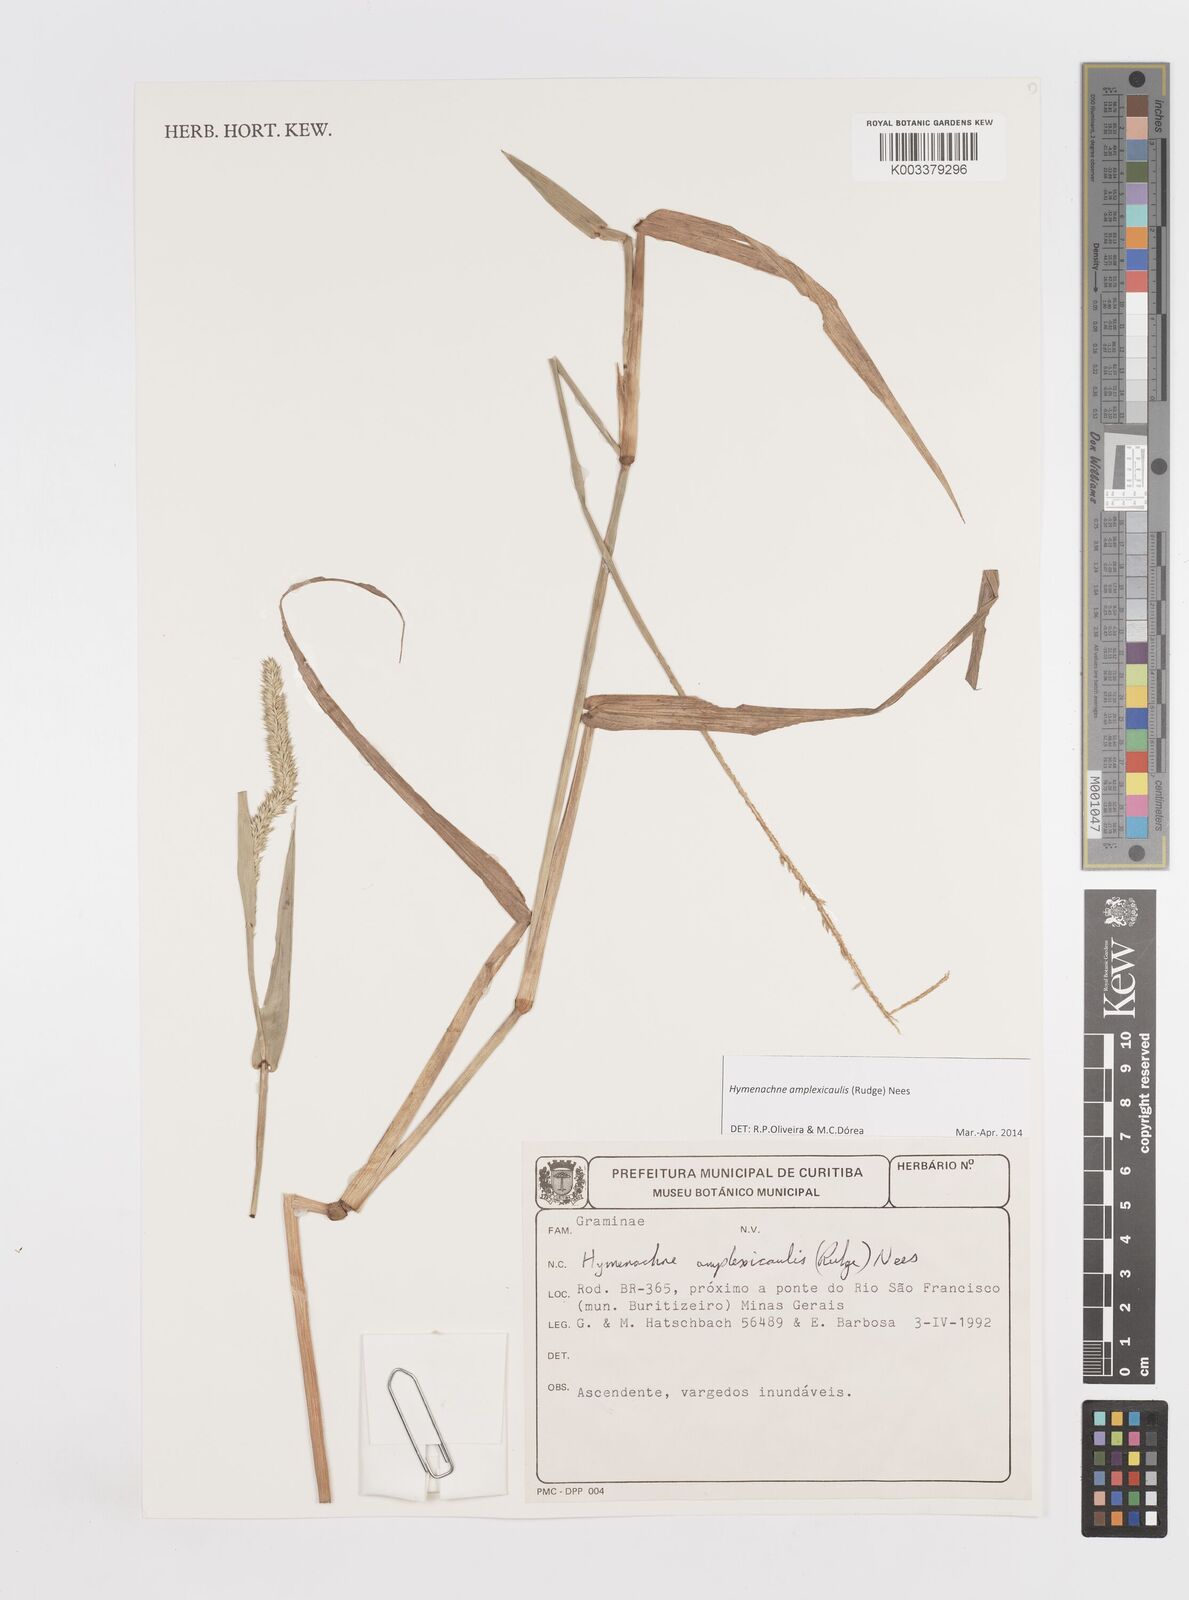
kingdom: Plantae
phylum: Tracheophyta
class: Liliopsida
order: Poales
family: Poaceae
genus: Hymenachne
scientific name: Hymenachne amplexicaulis
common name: Olive hymenachne
